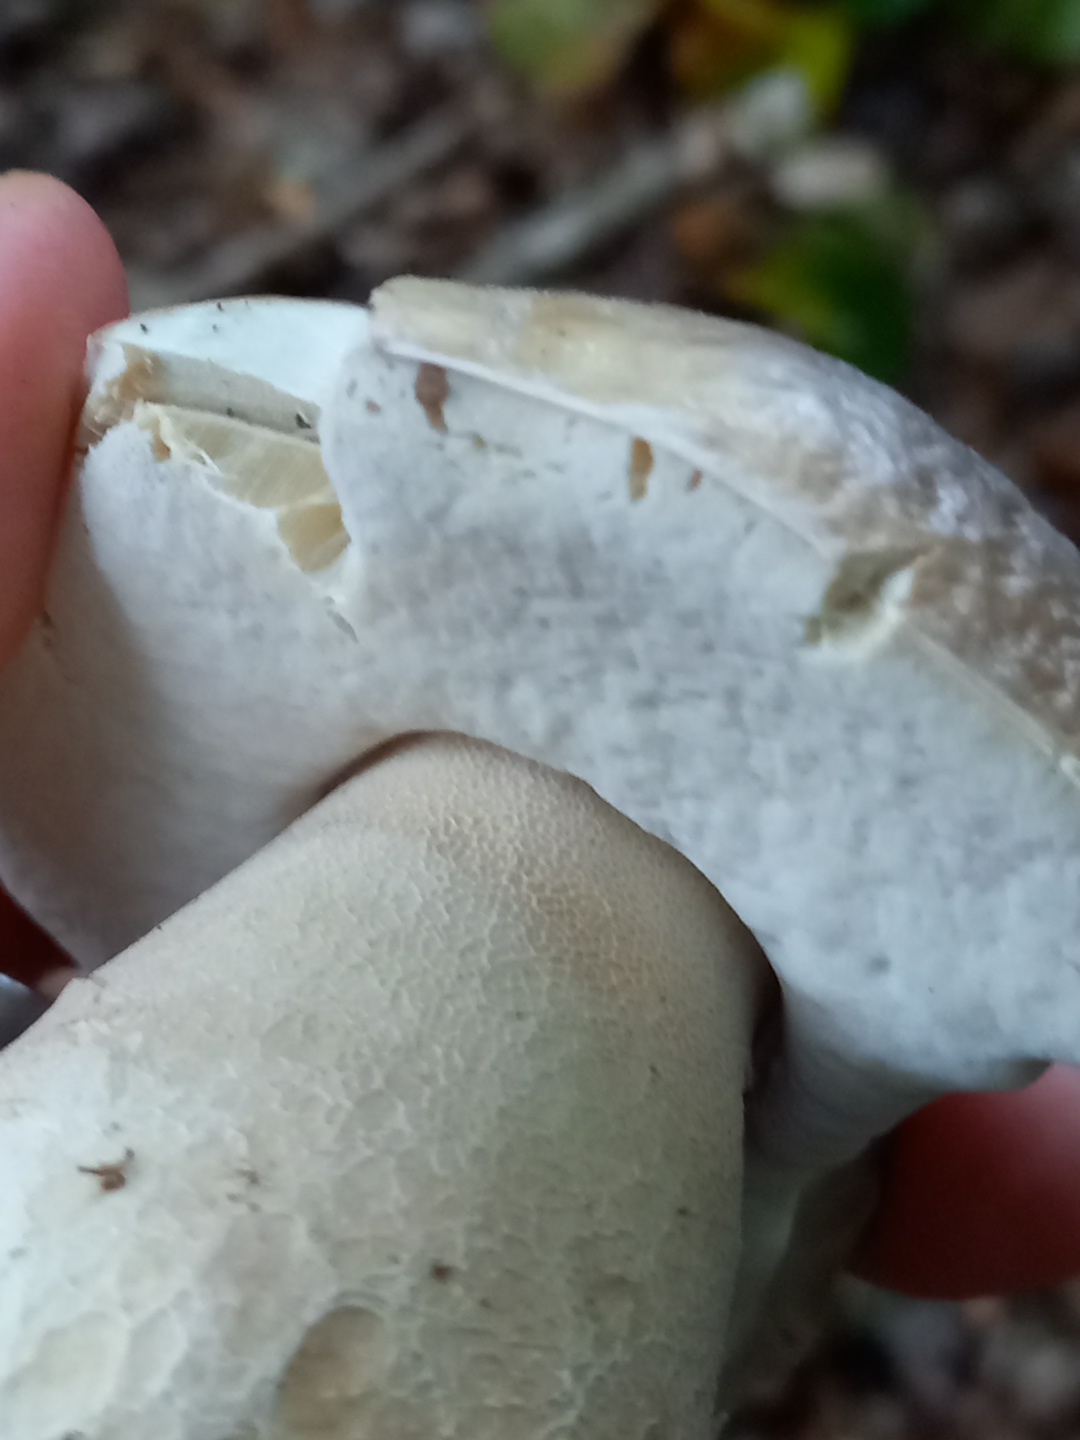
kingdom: Fungi
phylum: Basidiomycota
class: Agaricomycetes
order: Boletales
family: Boletaceae
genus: Boletus
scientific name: Boletus
